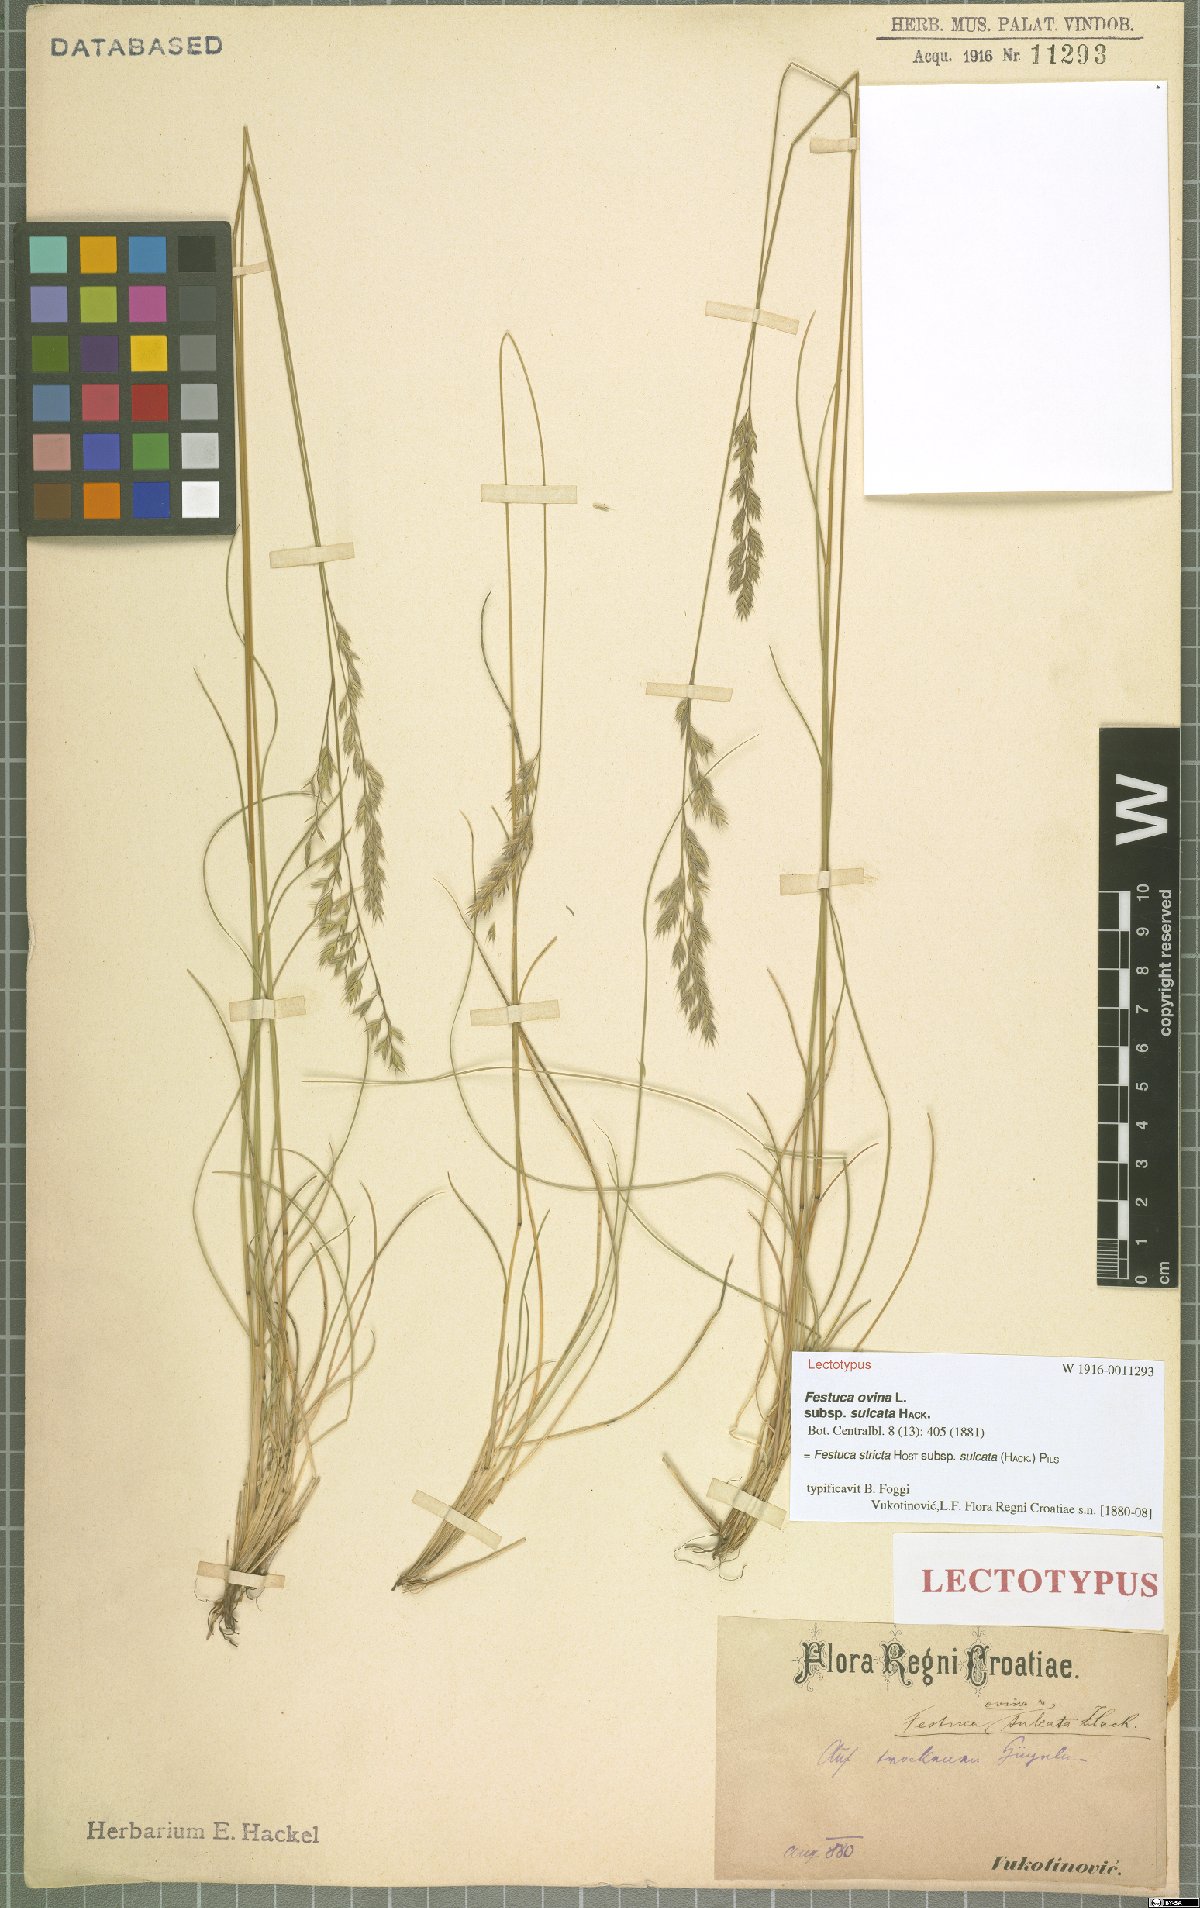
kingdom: Plantae
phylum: Tracheophyta
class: Liliopsida
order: Poales
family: Poaceae
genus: Festuca
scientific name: Festuca rupicola
